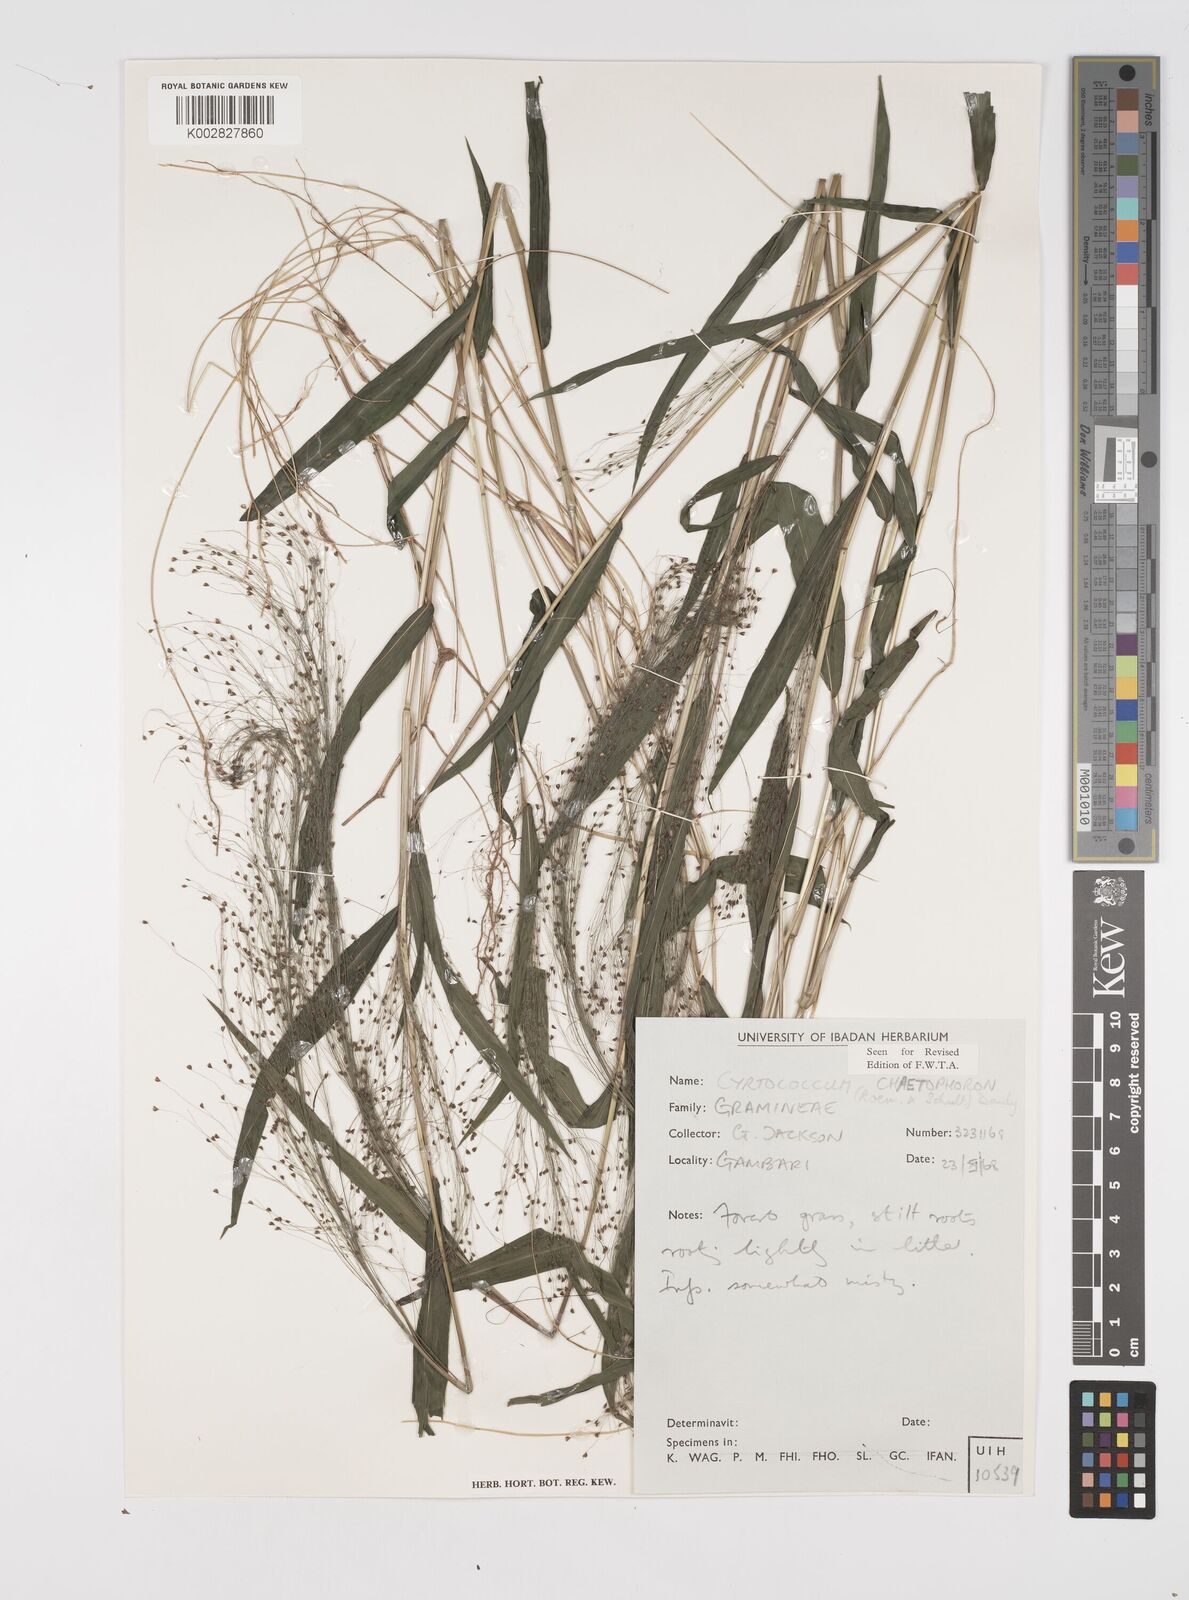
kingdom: Plantae
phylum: Tracheophyta
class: Liliopsida
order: Poales
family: Poaceae
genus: Cyrtococcum
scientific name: Cyrtococcum chaetophoron
